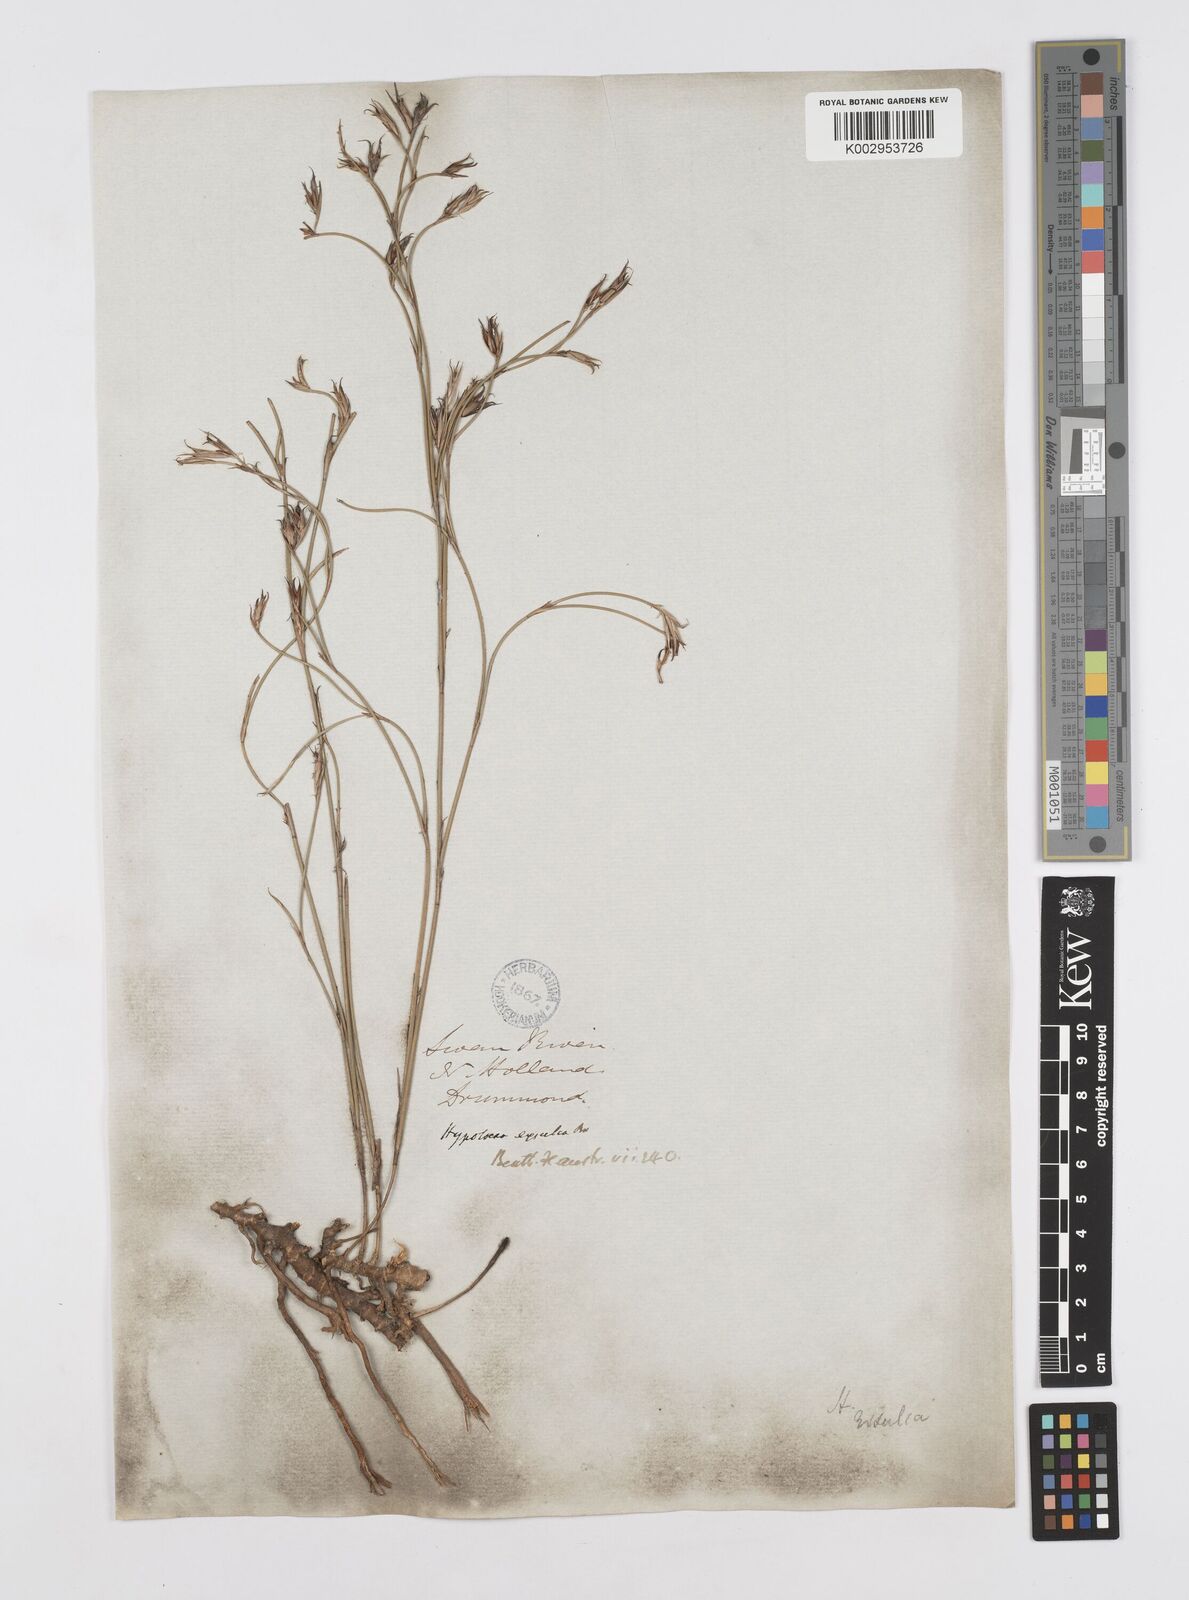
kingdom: Plantae
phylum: Tracheophyta
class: Liliopsida
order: Poales
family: Restionaceae
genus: Hypolaena
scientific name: Hypolaena exsulca
